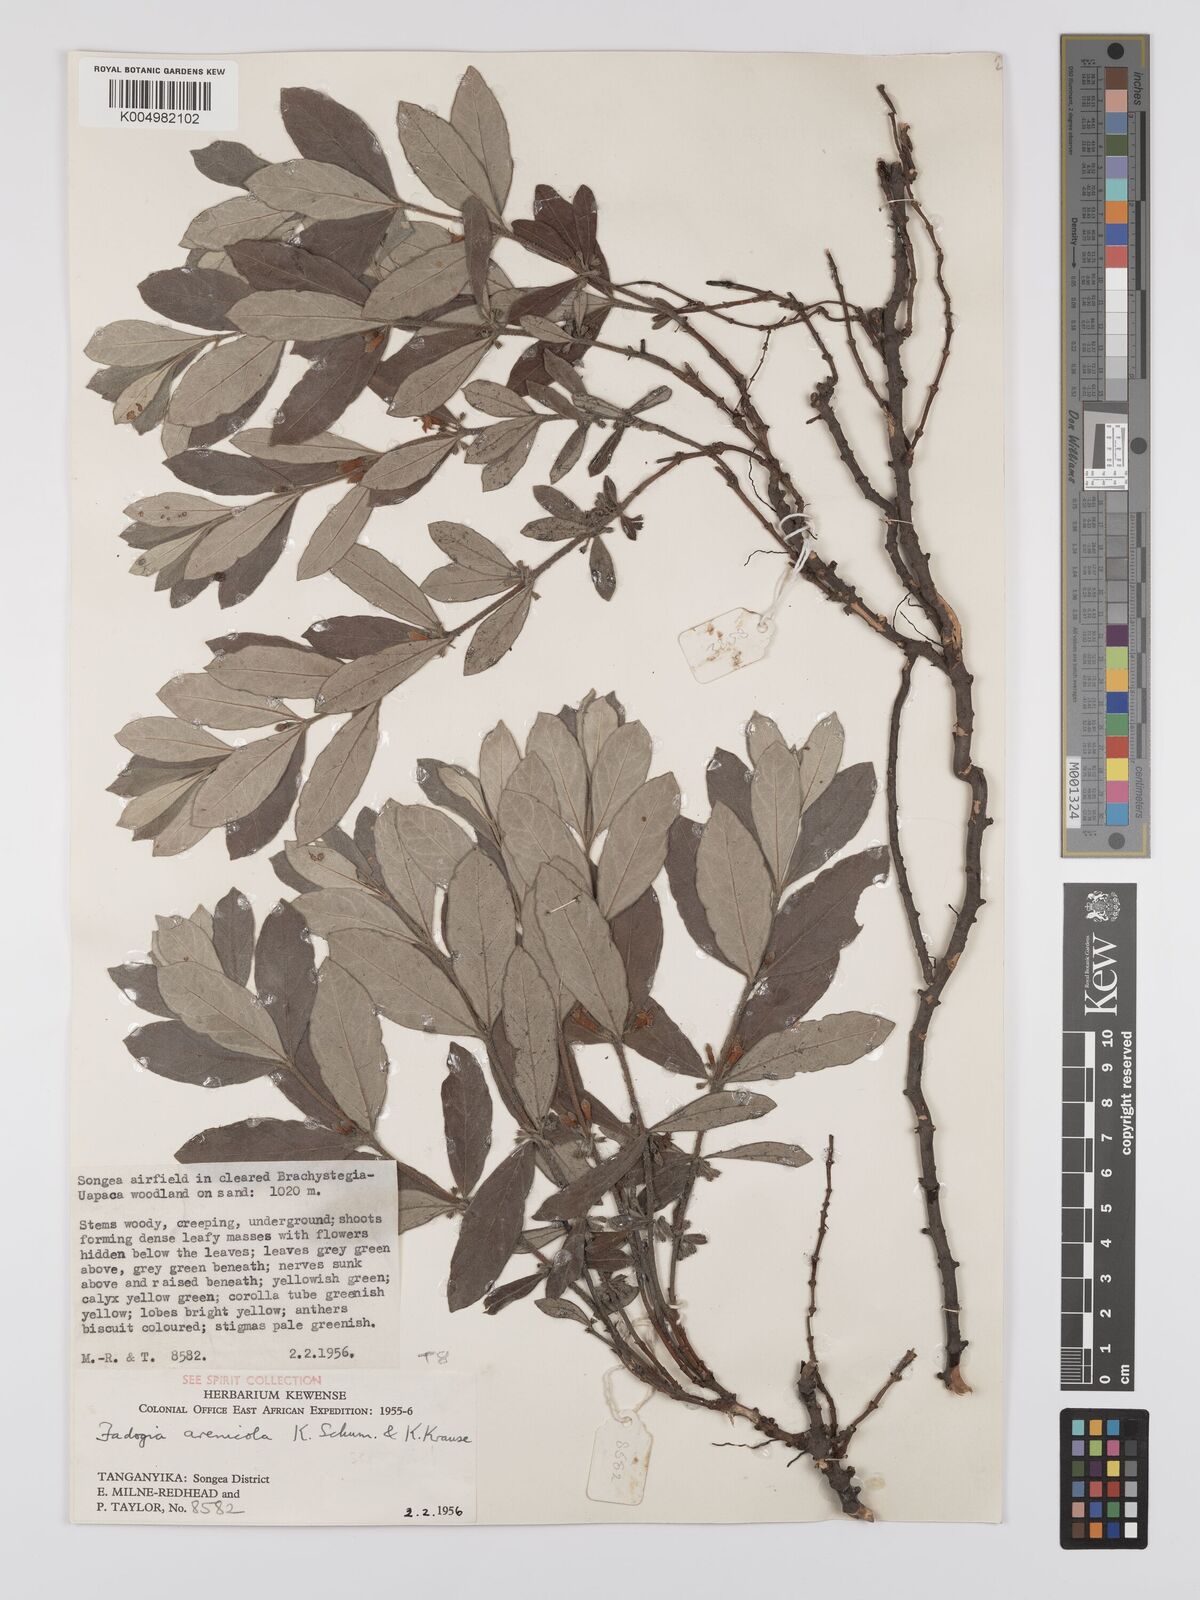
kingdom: Plantae
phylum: Tracheophyta
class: Magnoliopsida
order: Gentianales
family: Rubiaceae
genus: Fadogia
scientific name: Fadogia arenicola
